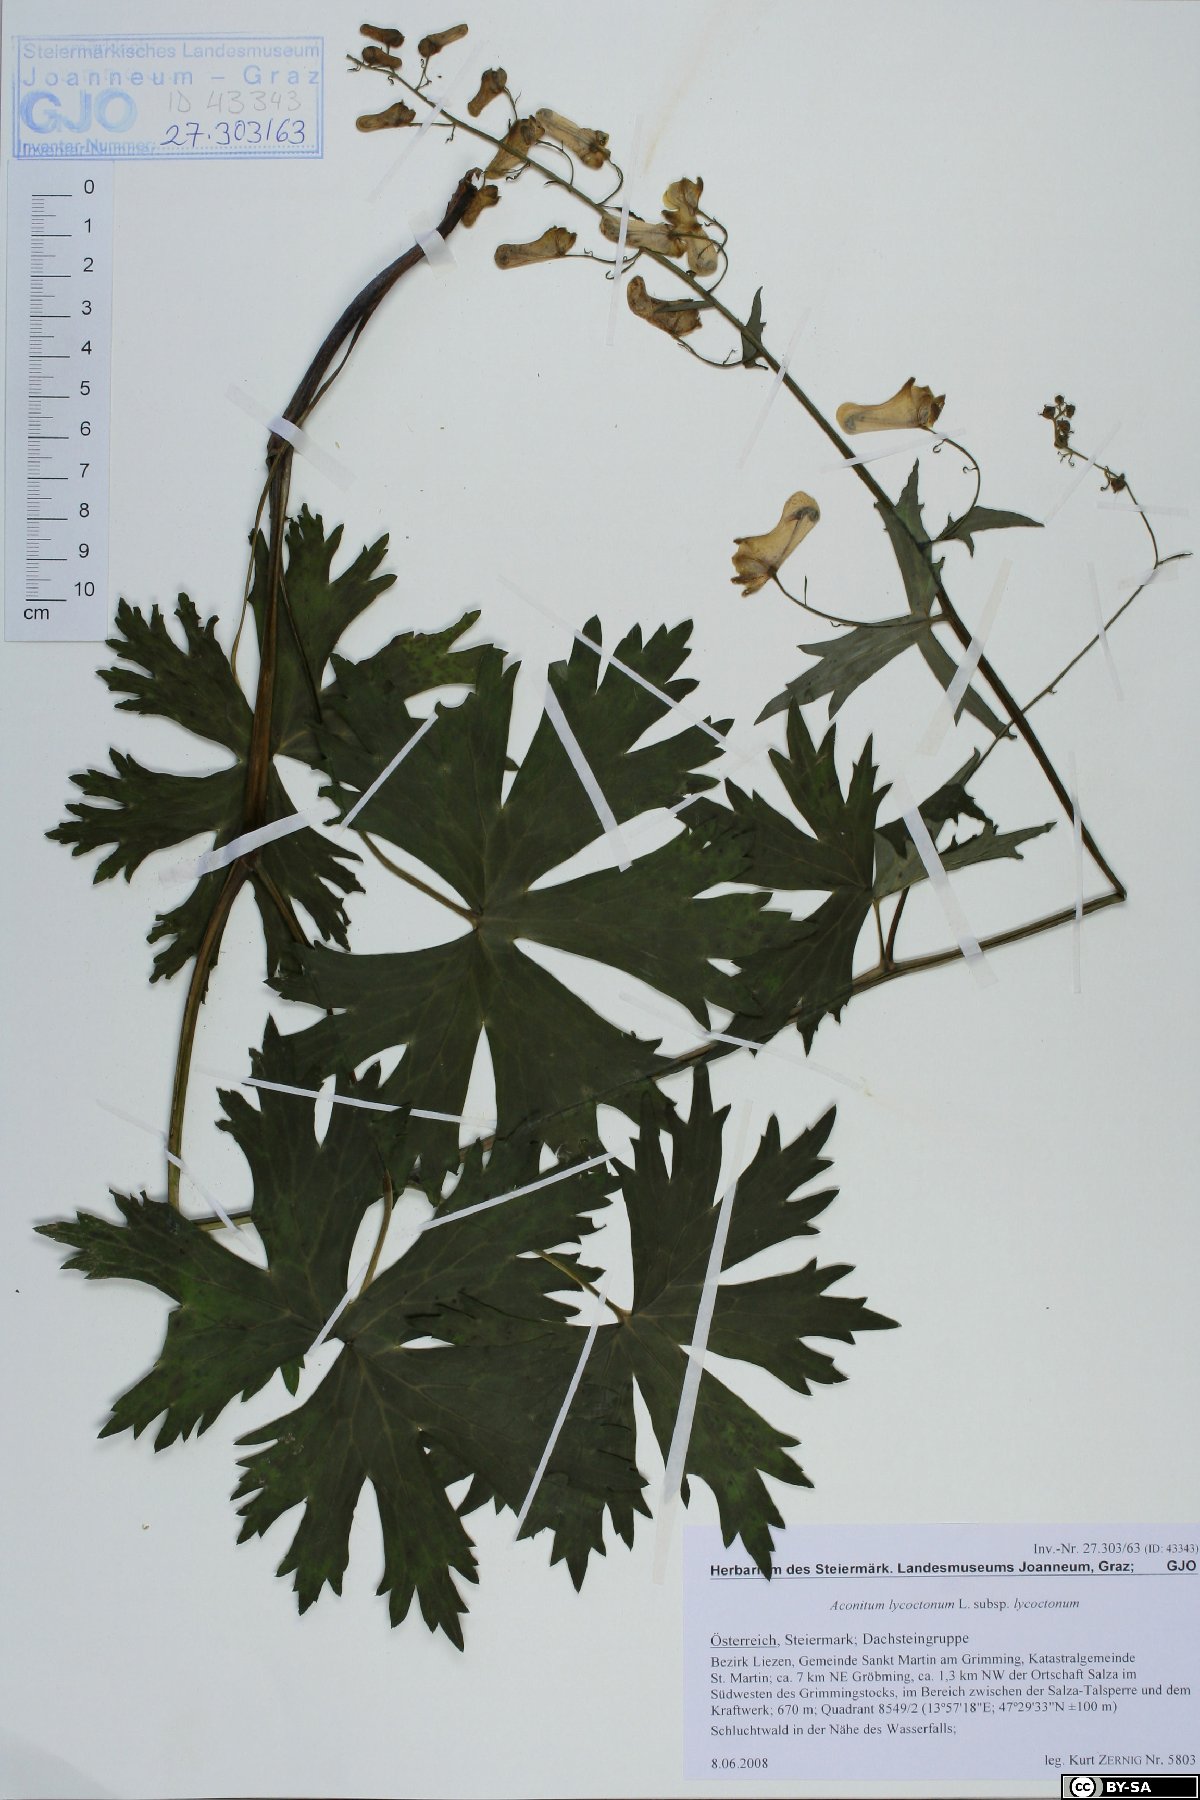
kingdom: Plantae
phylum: Tracheophyta
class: Magnoliopsida
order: Ranunculales
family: Ranunculaceae
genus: Aconitum
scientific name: Aconitum lycoctonum
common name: Wolf's-bane
